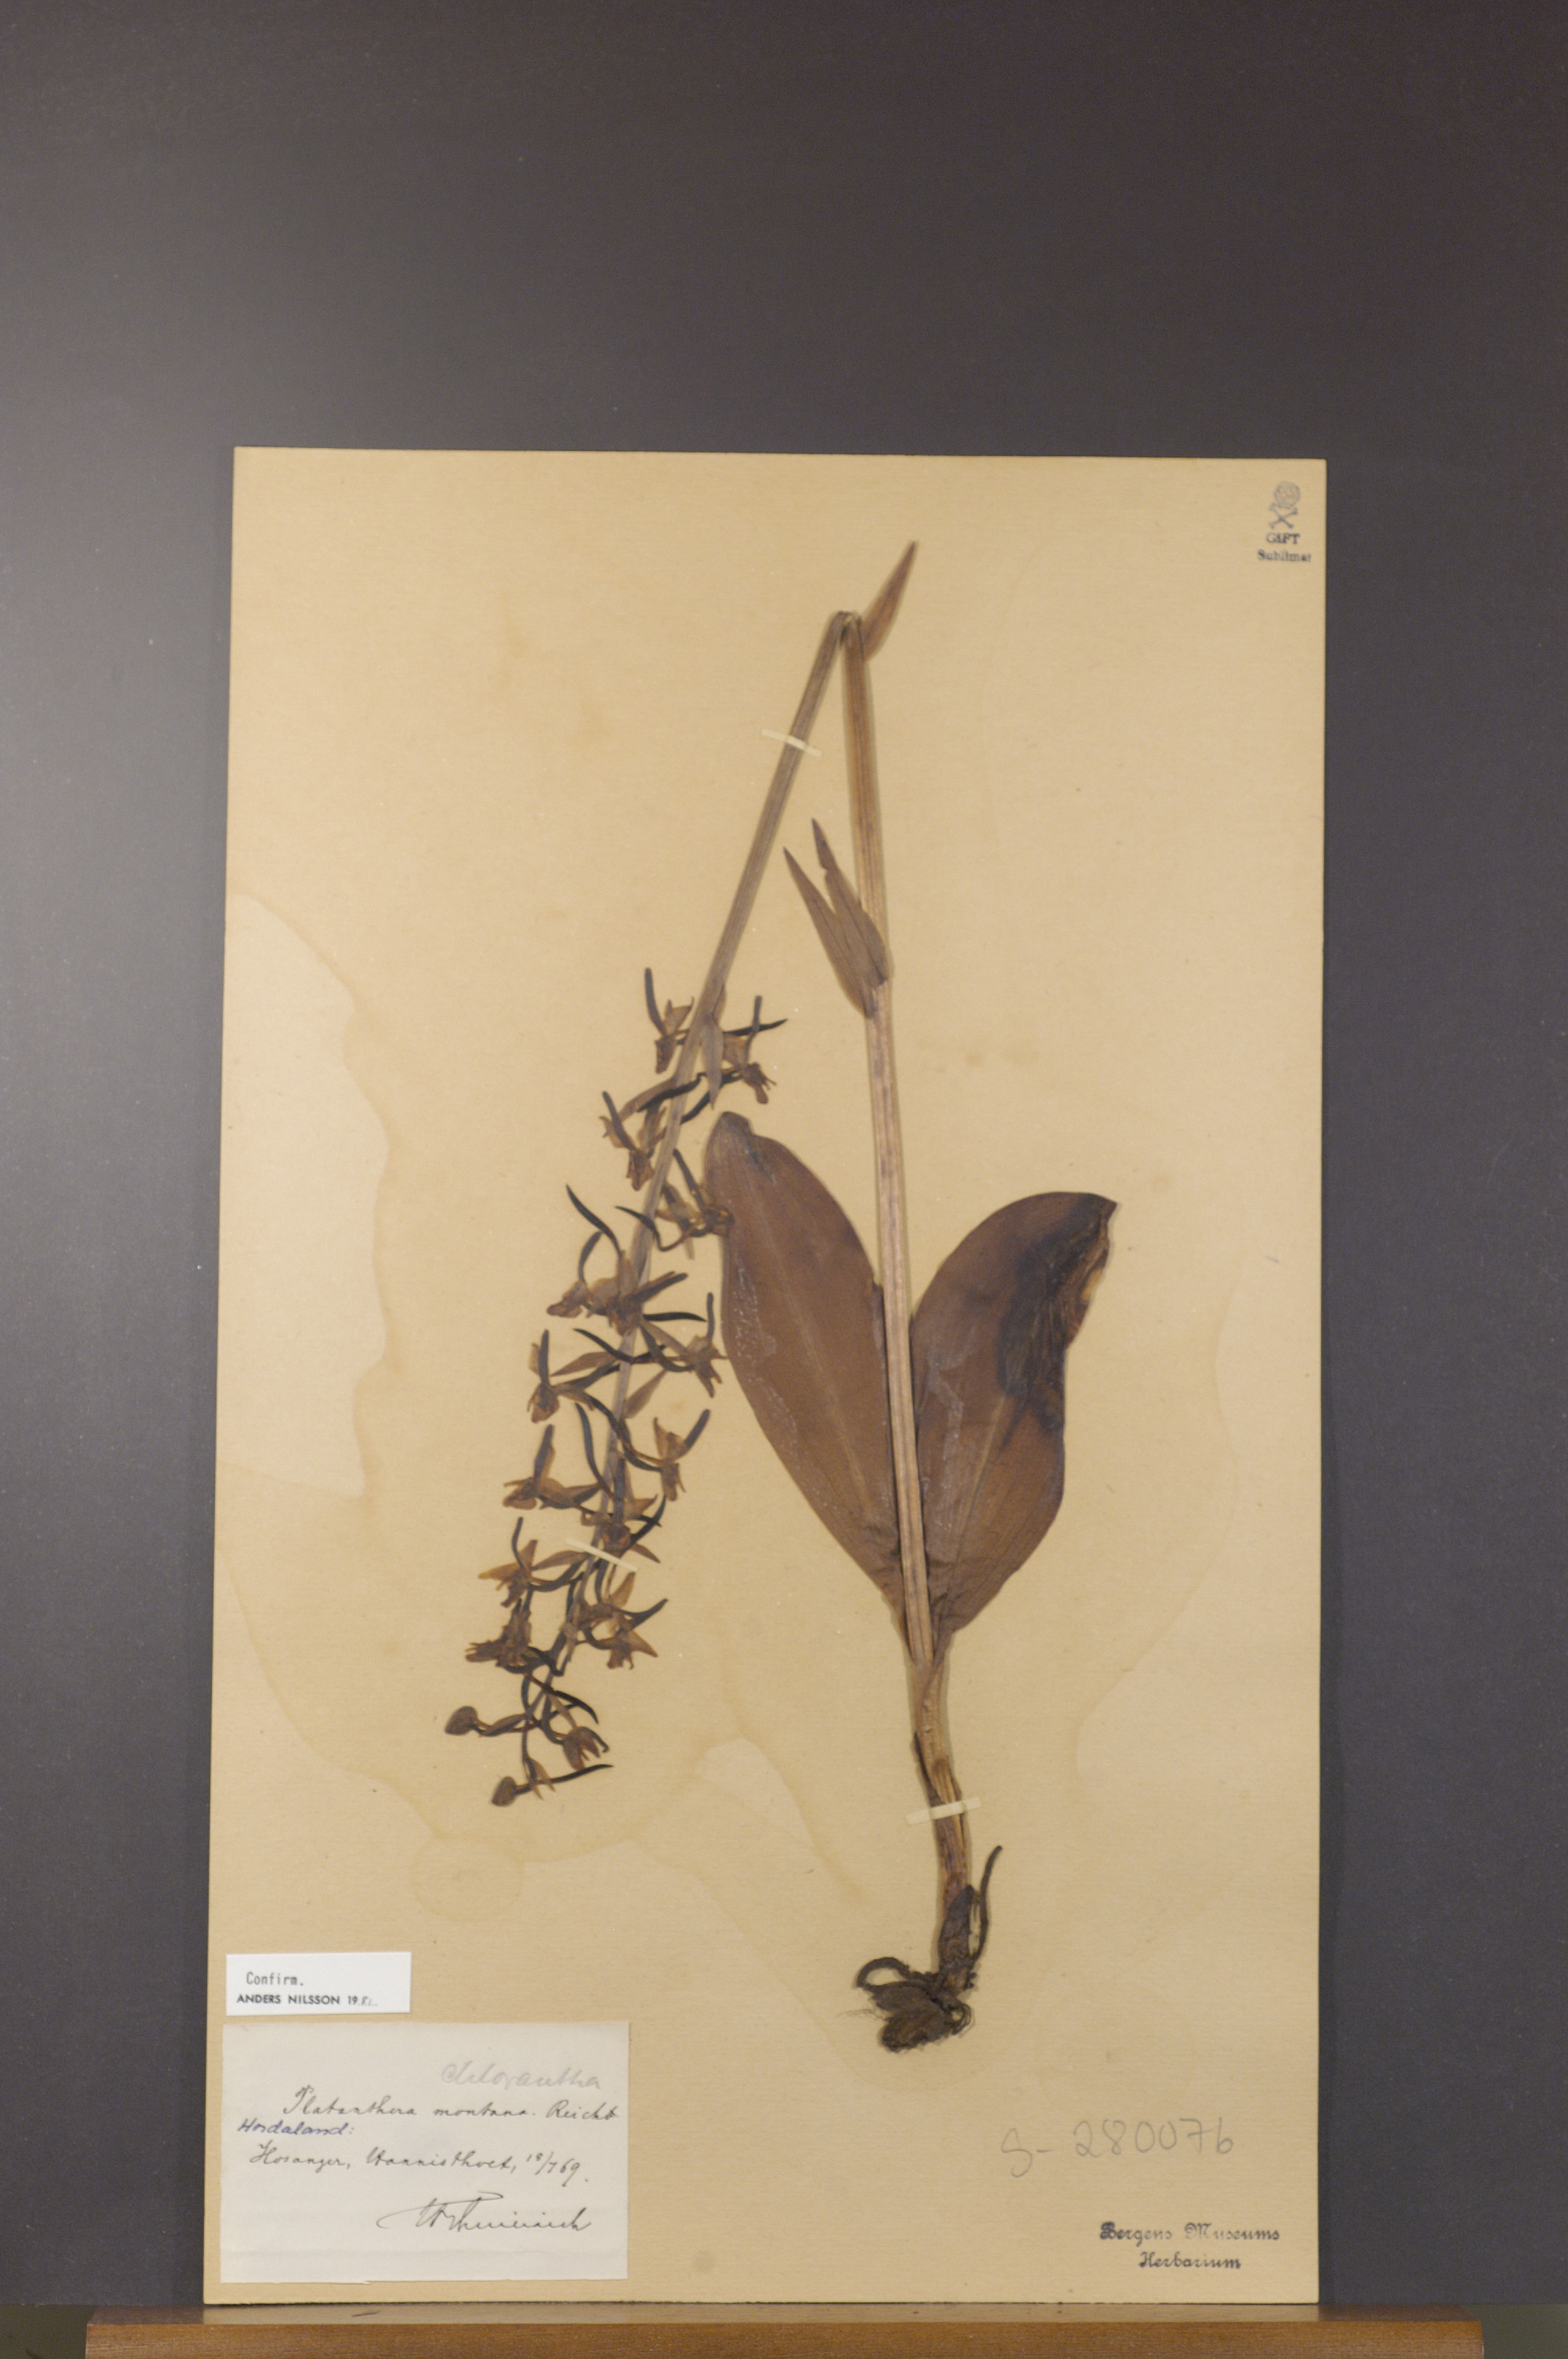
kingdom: Plantae
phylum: Tracheophyta
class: Liliopsida
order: Asparagales
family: Orchidaceae
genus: Platanthera
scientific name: Platanthera chlorantha
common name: Greater butterfly-orchid
